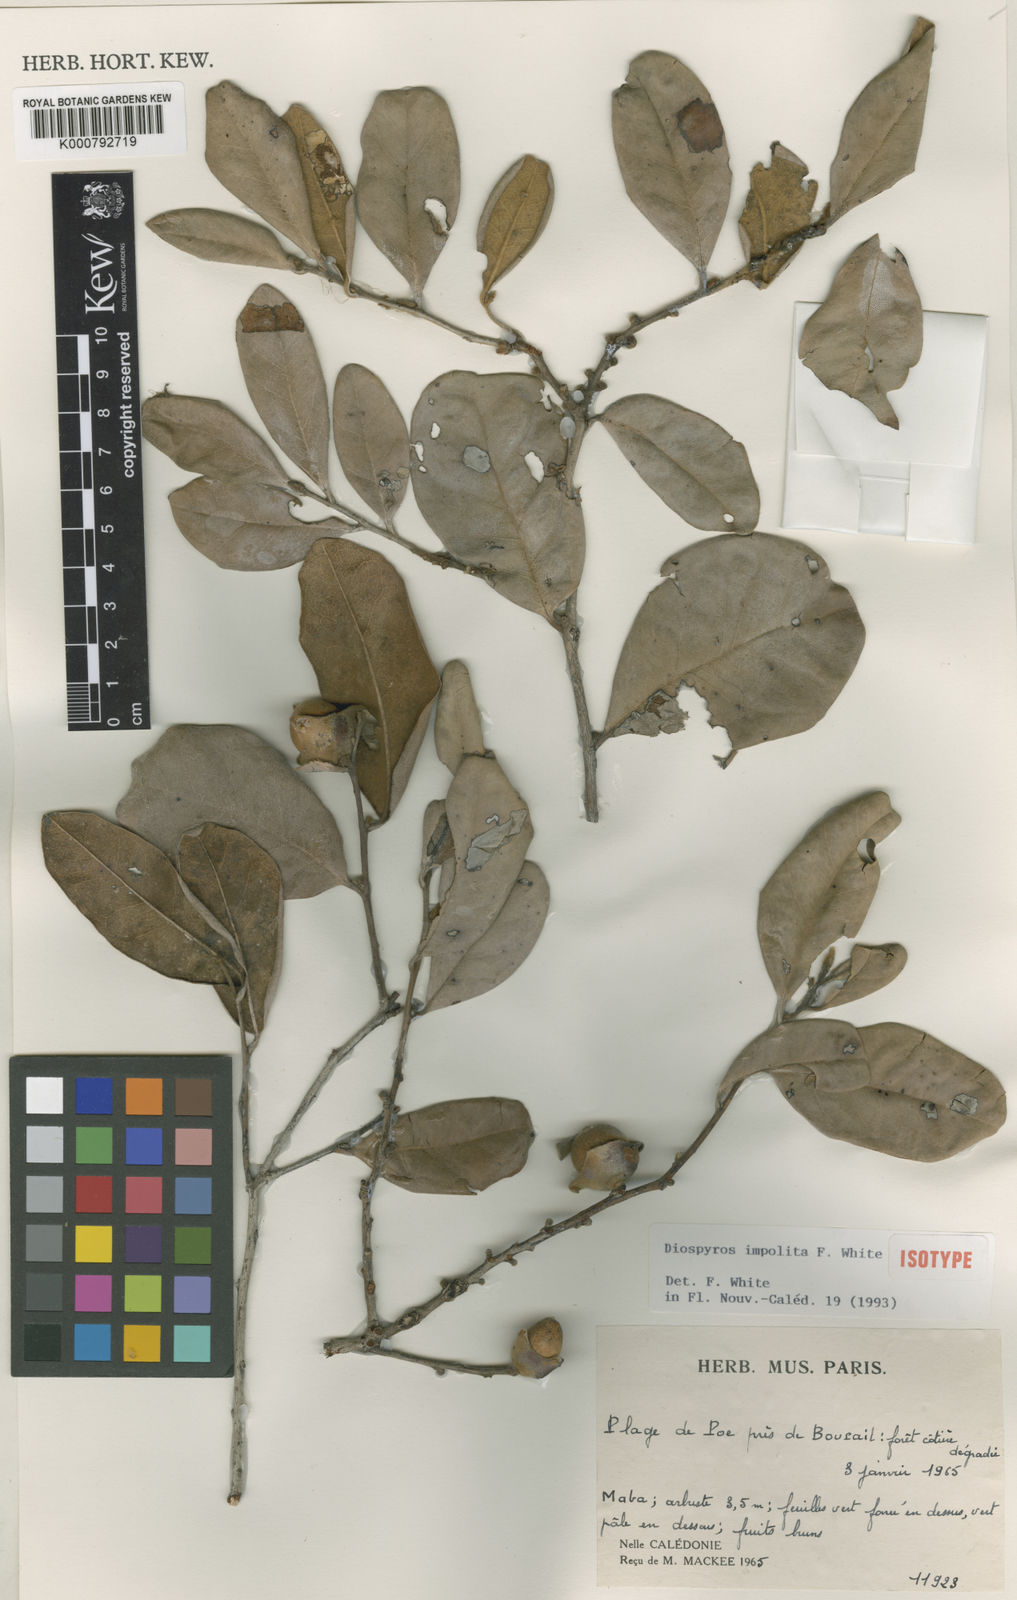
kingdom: Plantae
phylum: Tracheophyta
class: Magnoliopsida
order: Ericales
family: Ebenaceae
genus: Diospyros
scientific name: Diospyros impolita
